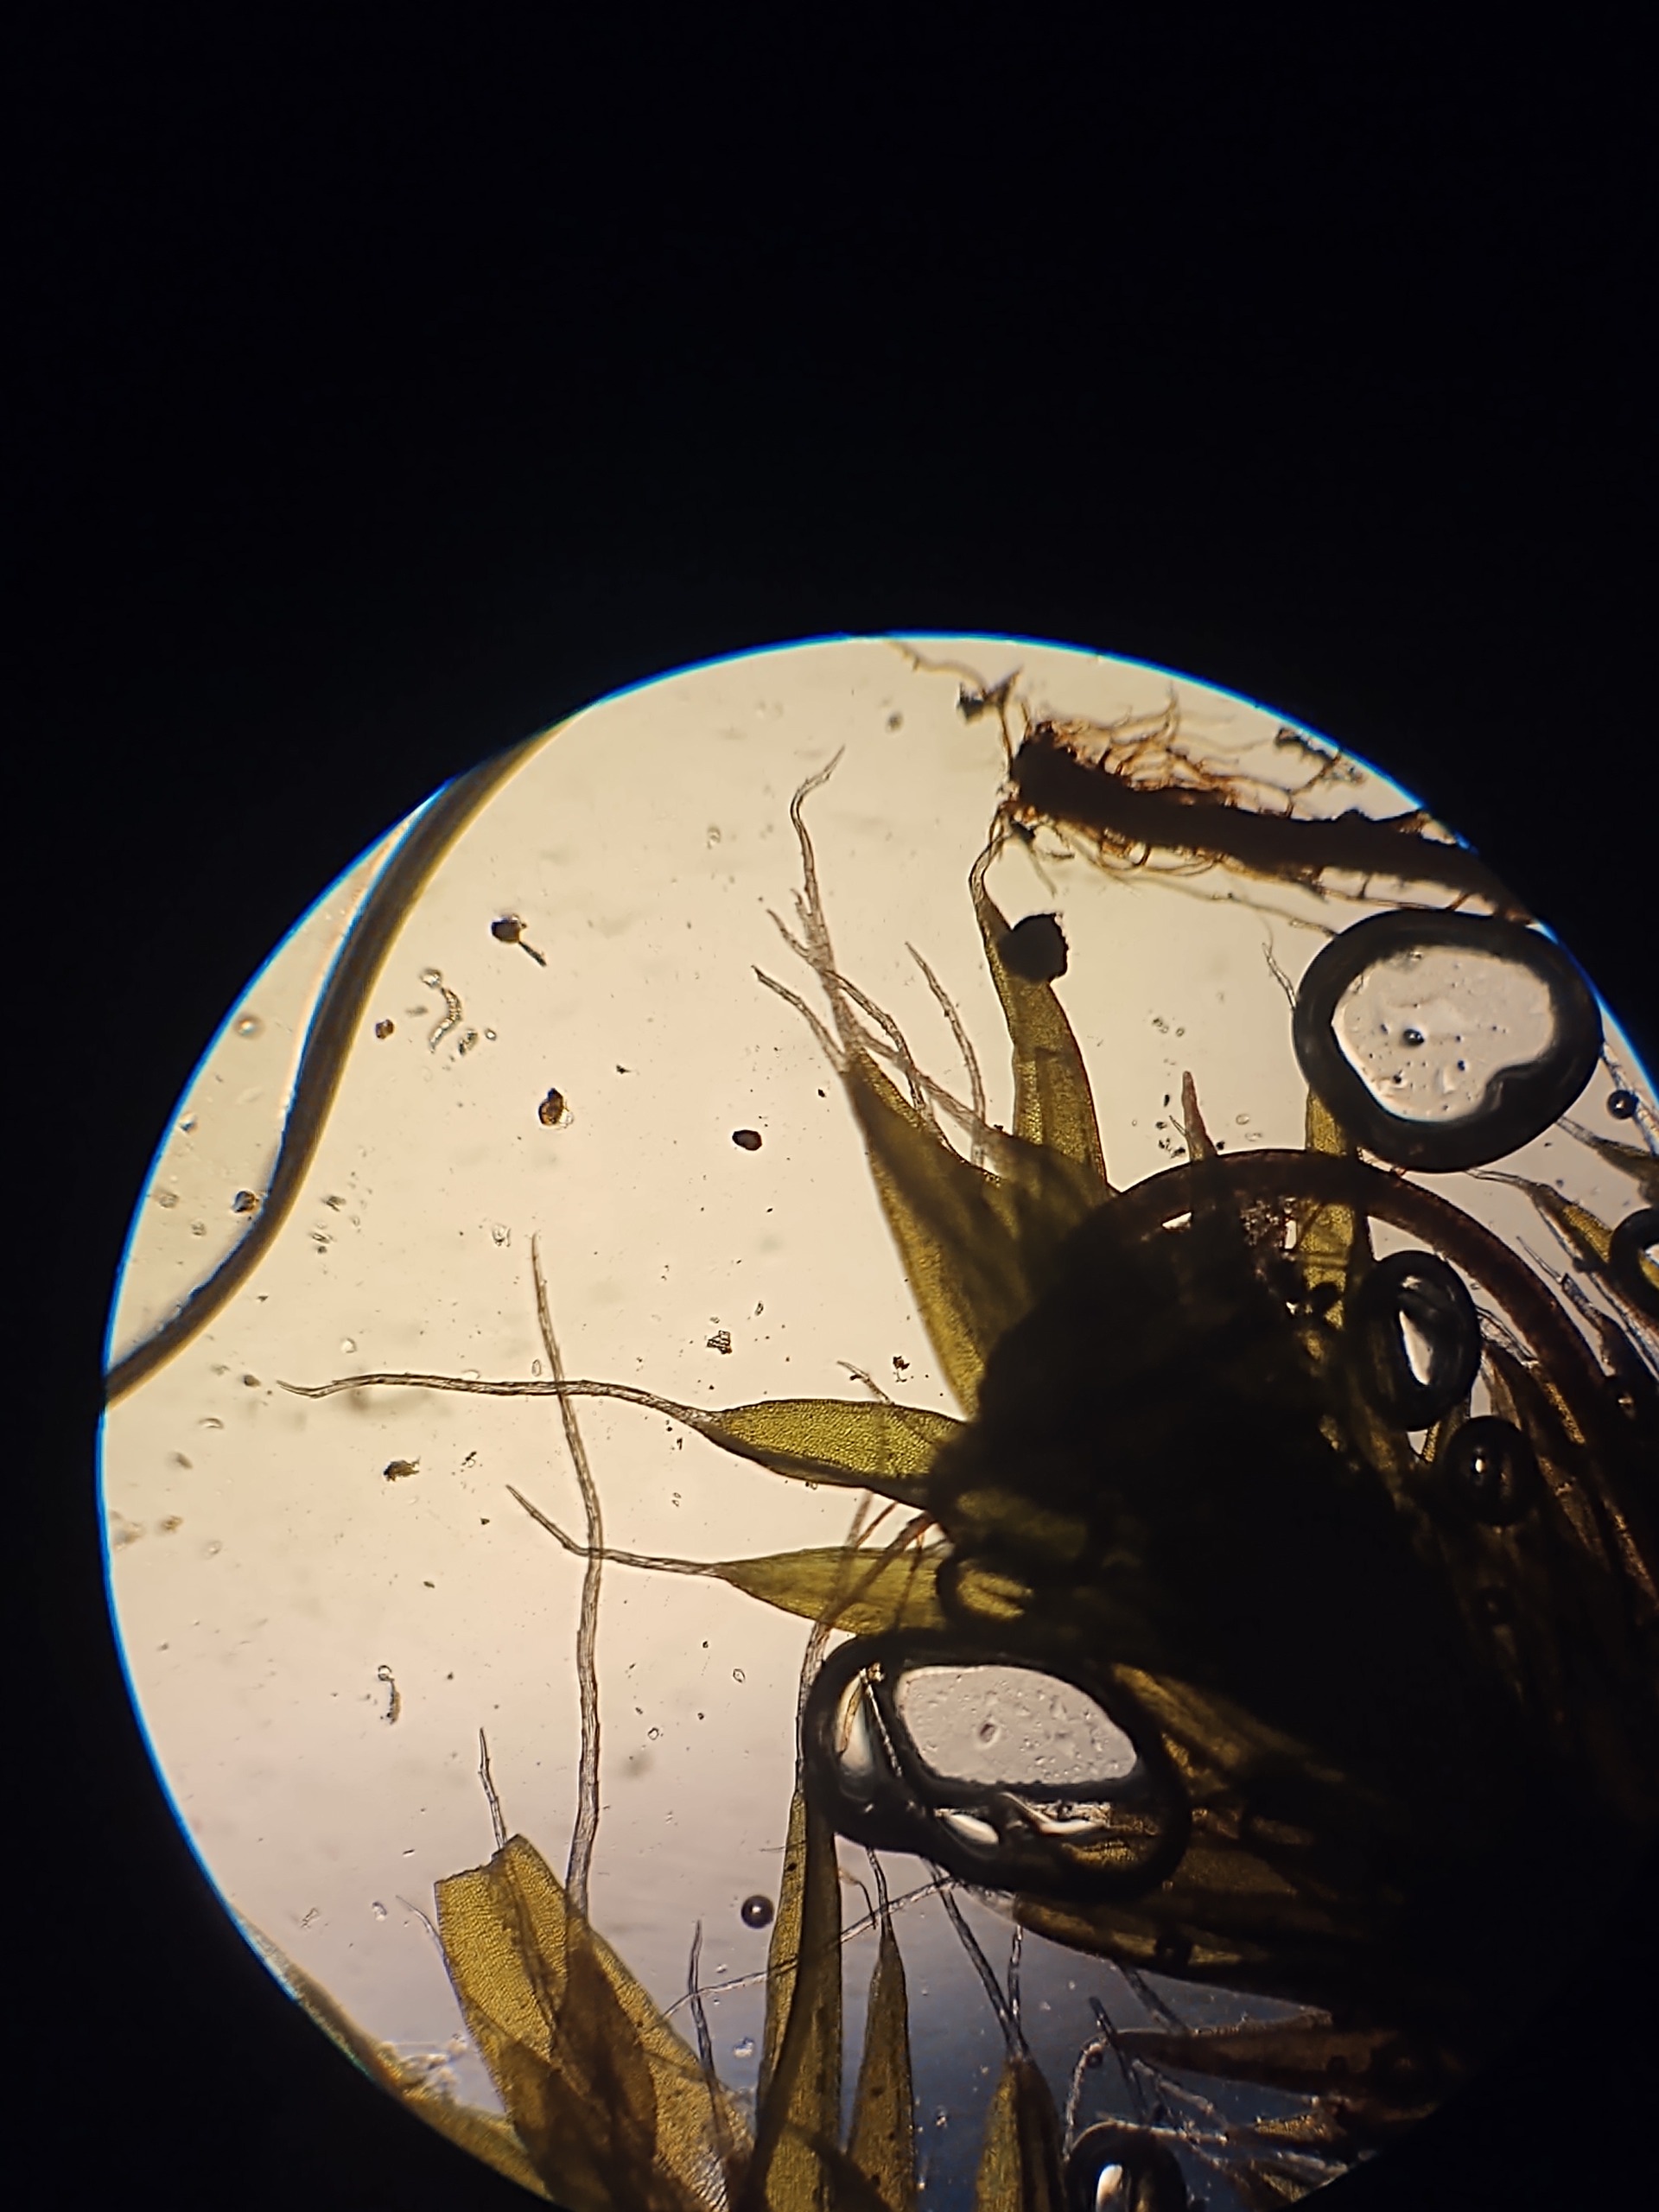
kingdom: Plantae
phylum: Bryophyta
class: Bryopsida
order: Grimmiales
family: Grimmiaceae
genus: Grimmia
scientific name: Grimmia pulvinata
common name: Pude-gråmos
